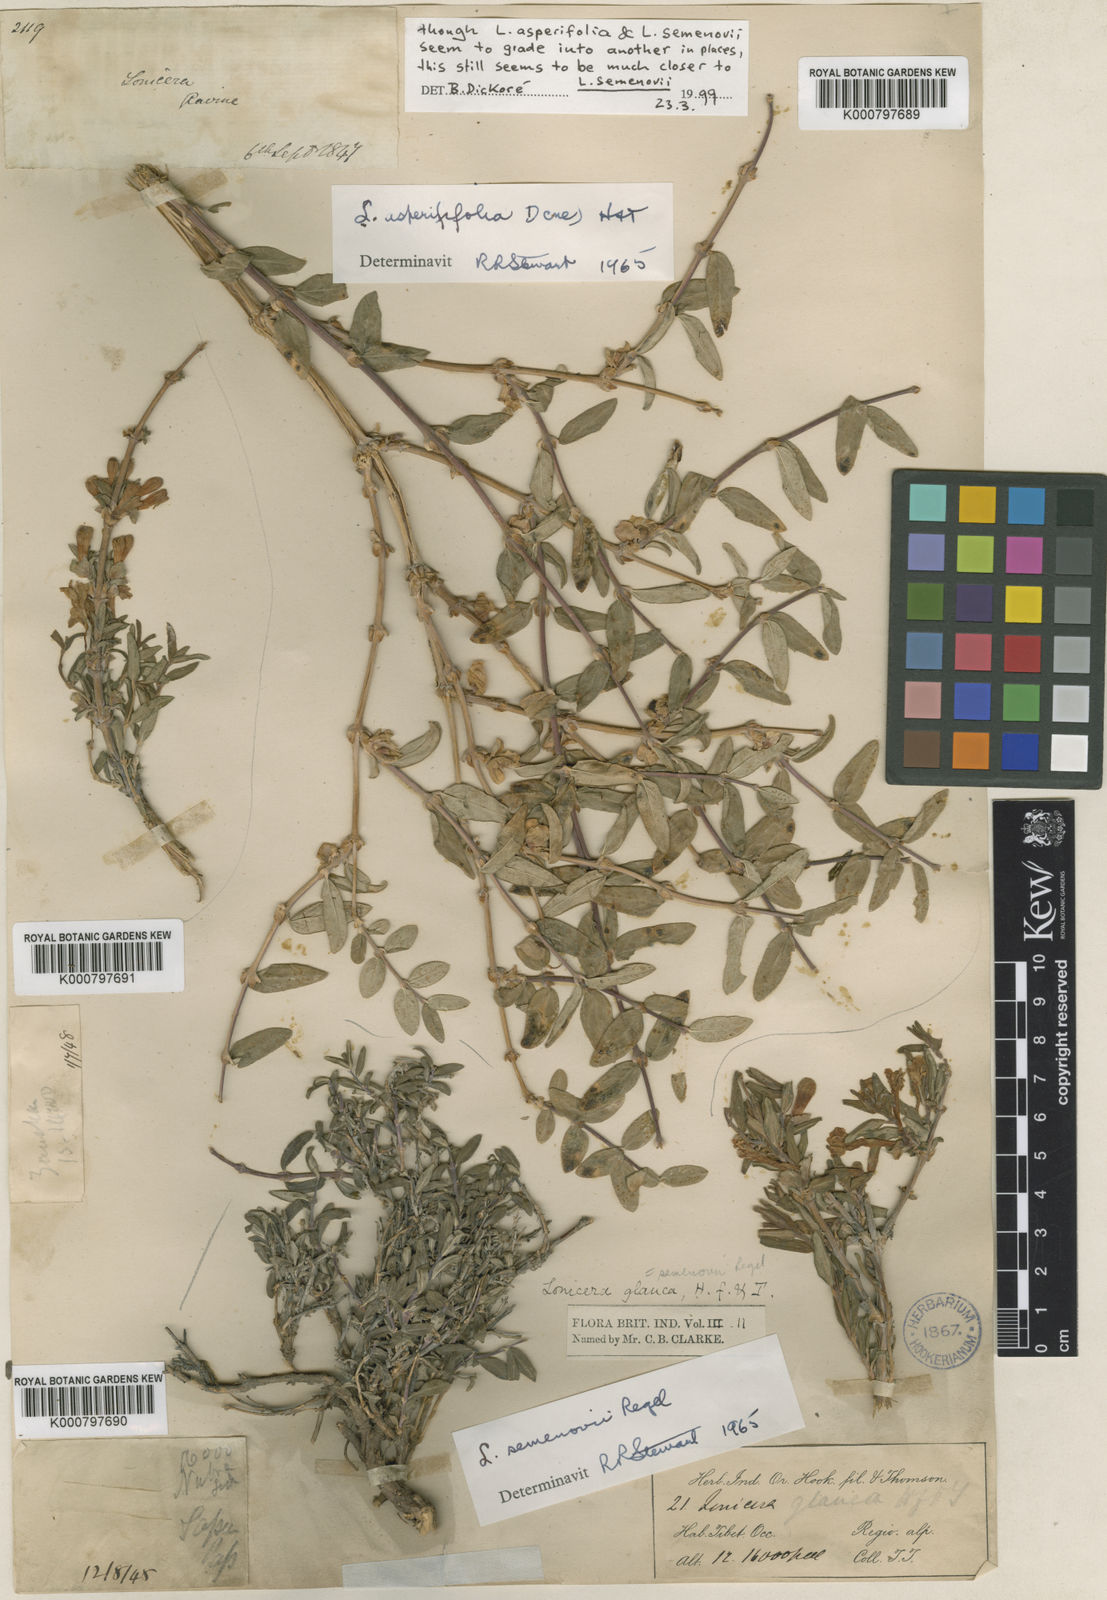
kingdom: Plantae
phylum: Tracheophyta
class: Magnoliopsida
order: Dipsacales
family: Caprifoliaceae
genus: Lonicera
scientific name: Lonicera semenovii
